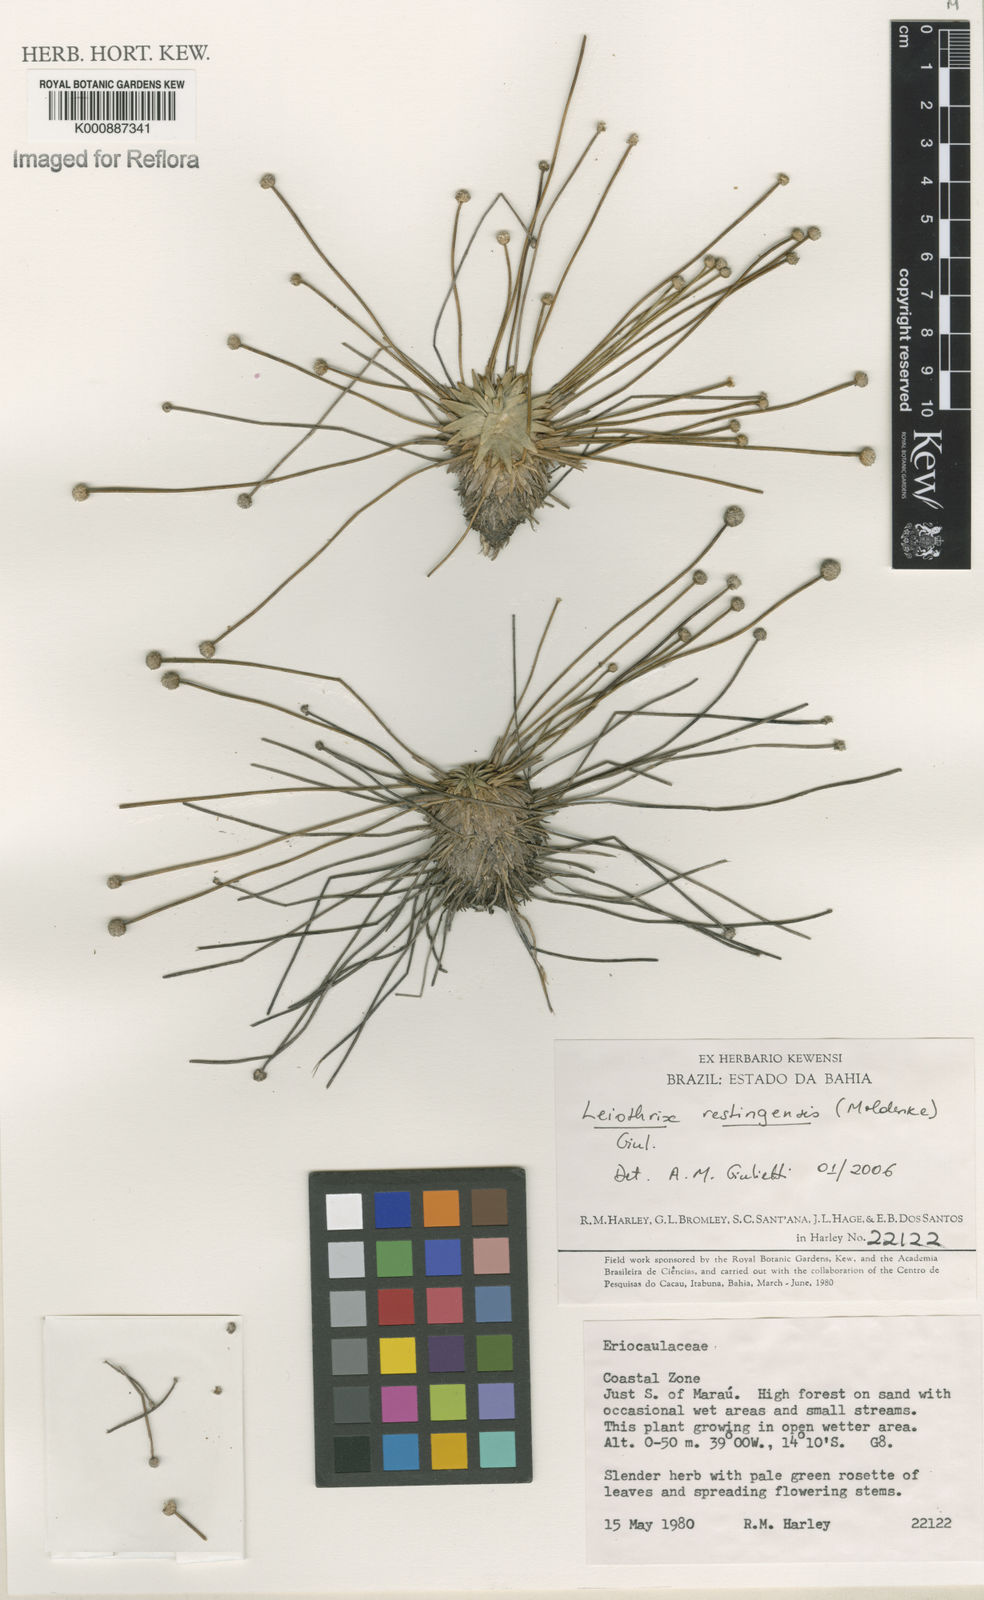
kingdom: Plantae
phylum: Tracheophyta
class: Liliopsida
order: Poales
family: Eriocaulaceae
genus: Leiothrix
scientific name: Leiothrix
